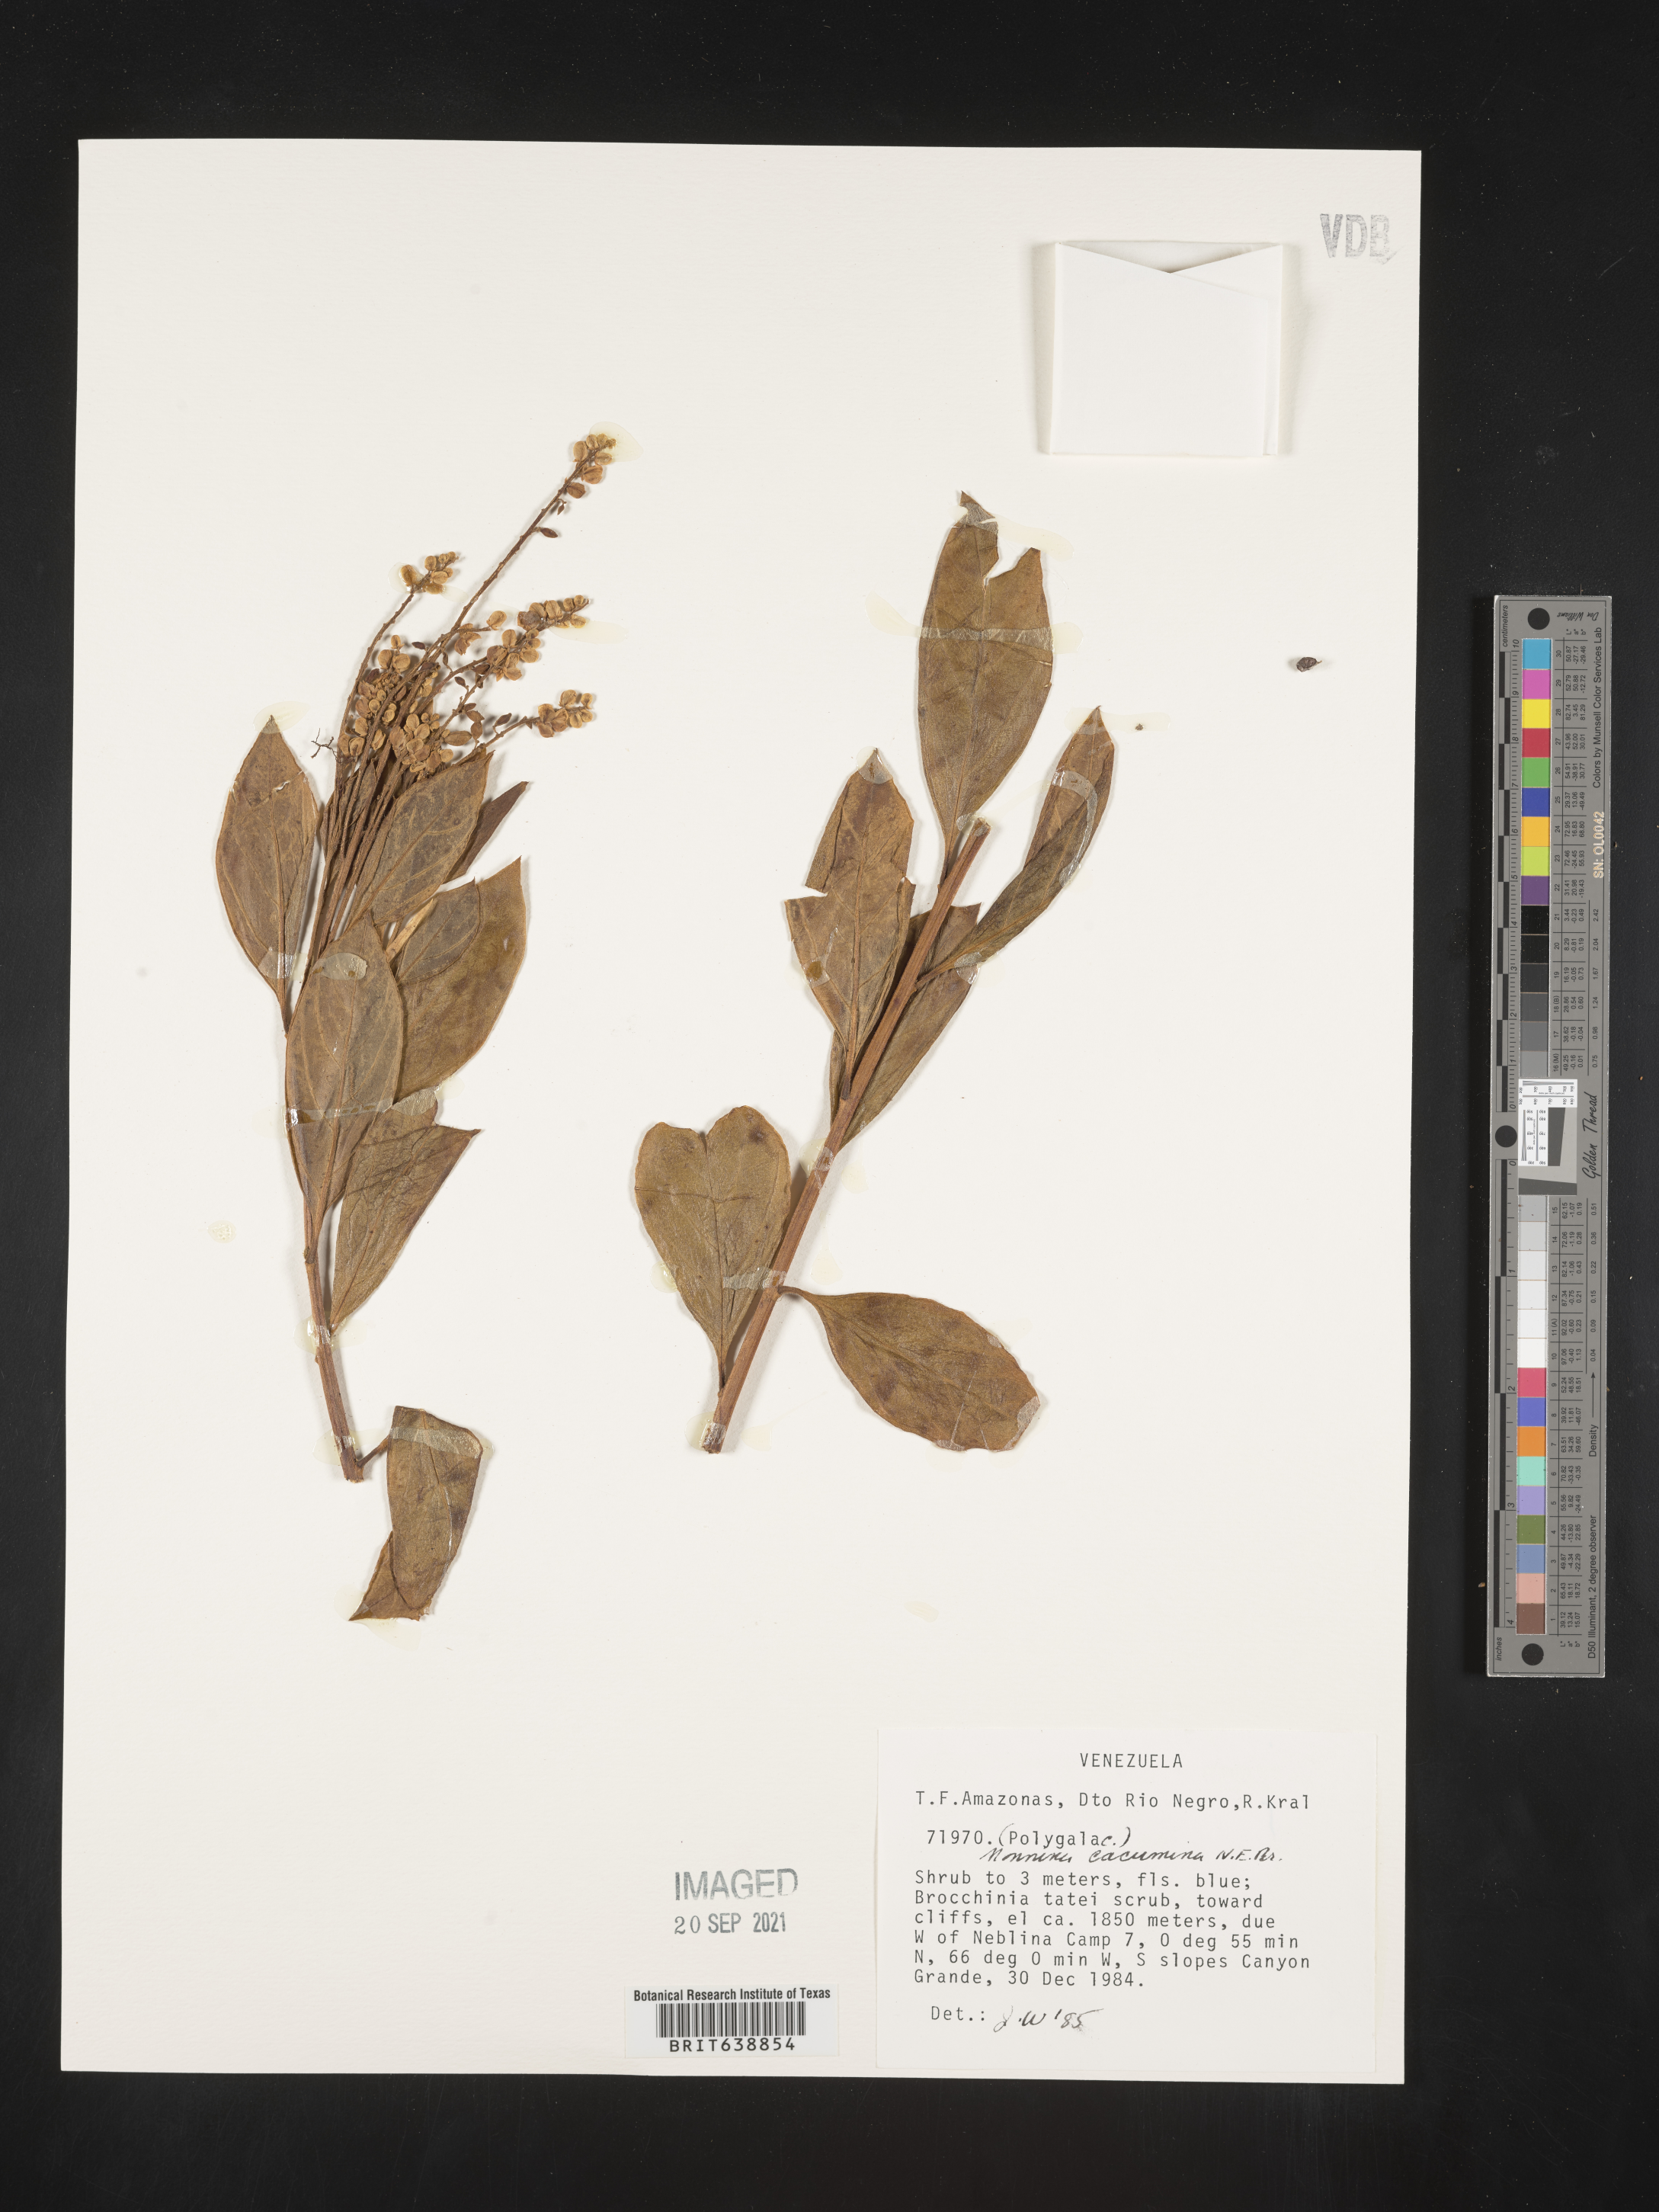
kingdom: Plantae
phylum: Tracheophyta
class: Magnoliopsida
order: Fabales
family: Polygalaceae
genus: Monnina
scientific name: Monnina
